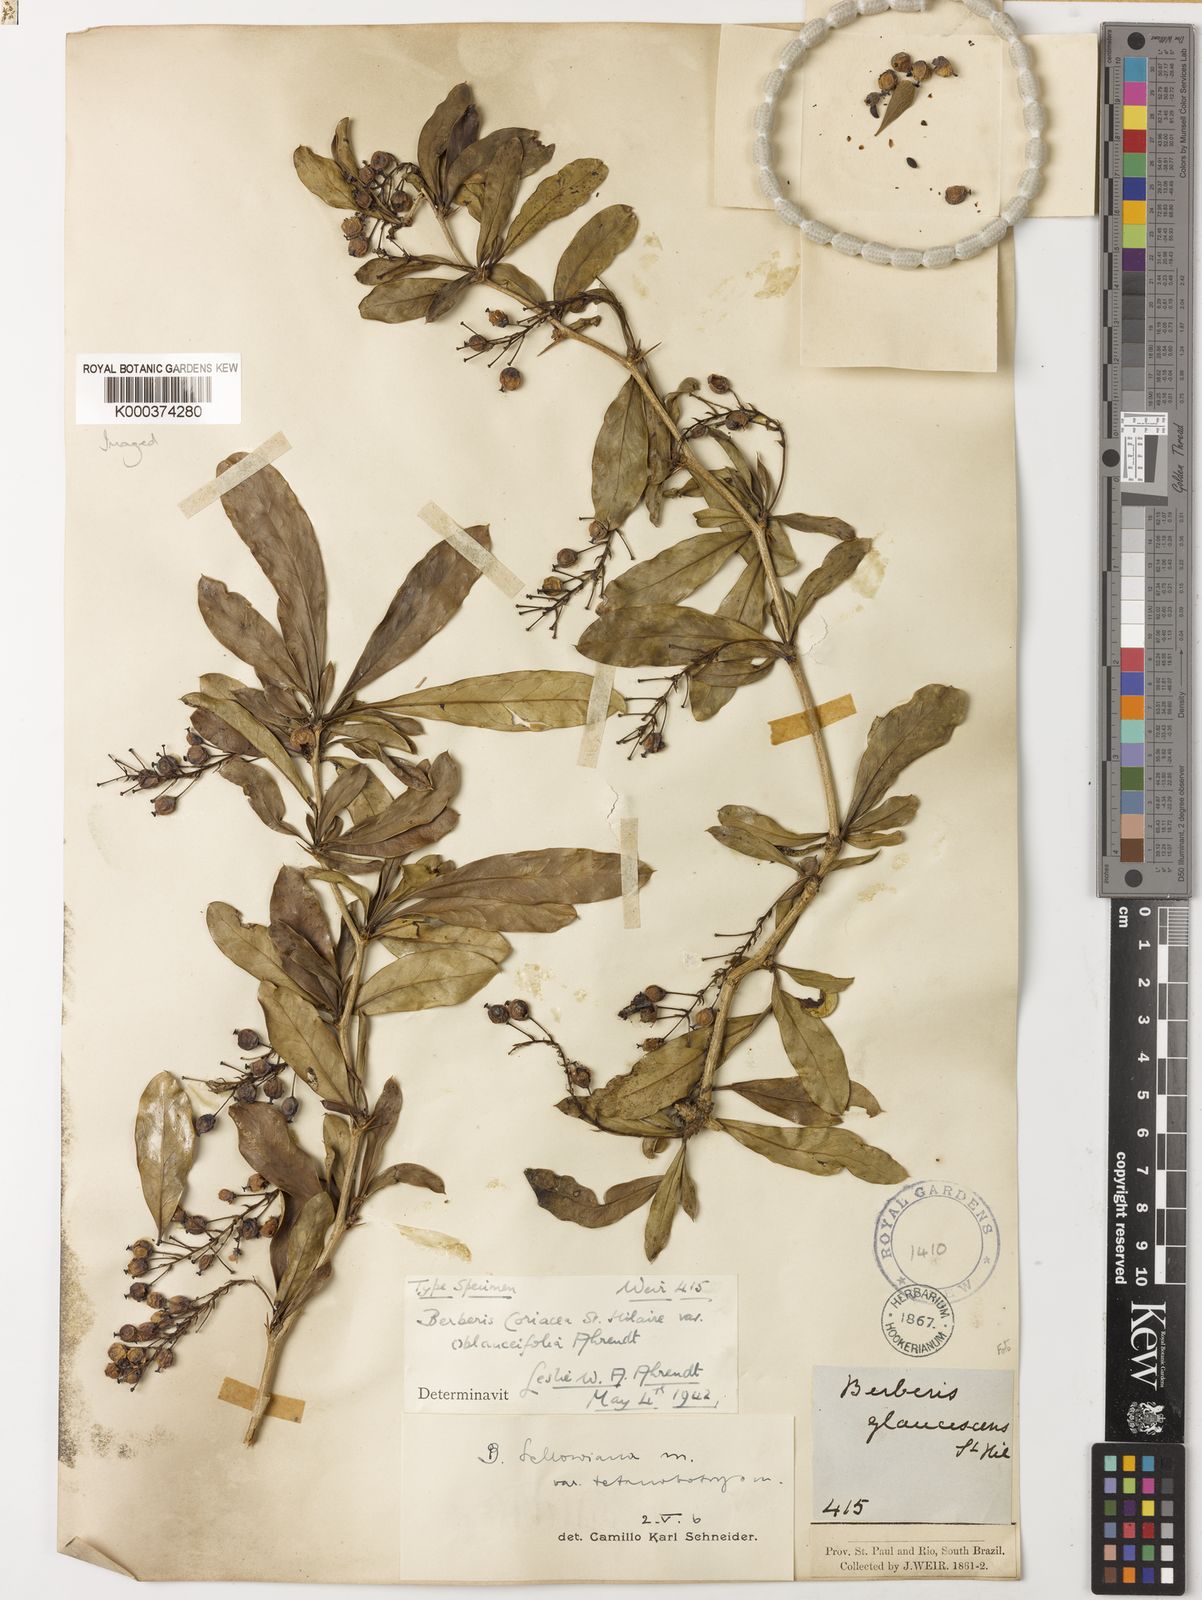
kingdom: Plantae
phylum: Tracheophyta
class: Magnoliopsida
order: Ranunculales
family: Berberidaceae
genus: Berberis
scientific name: Berberis laurina
